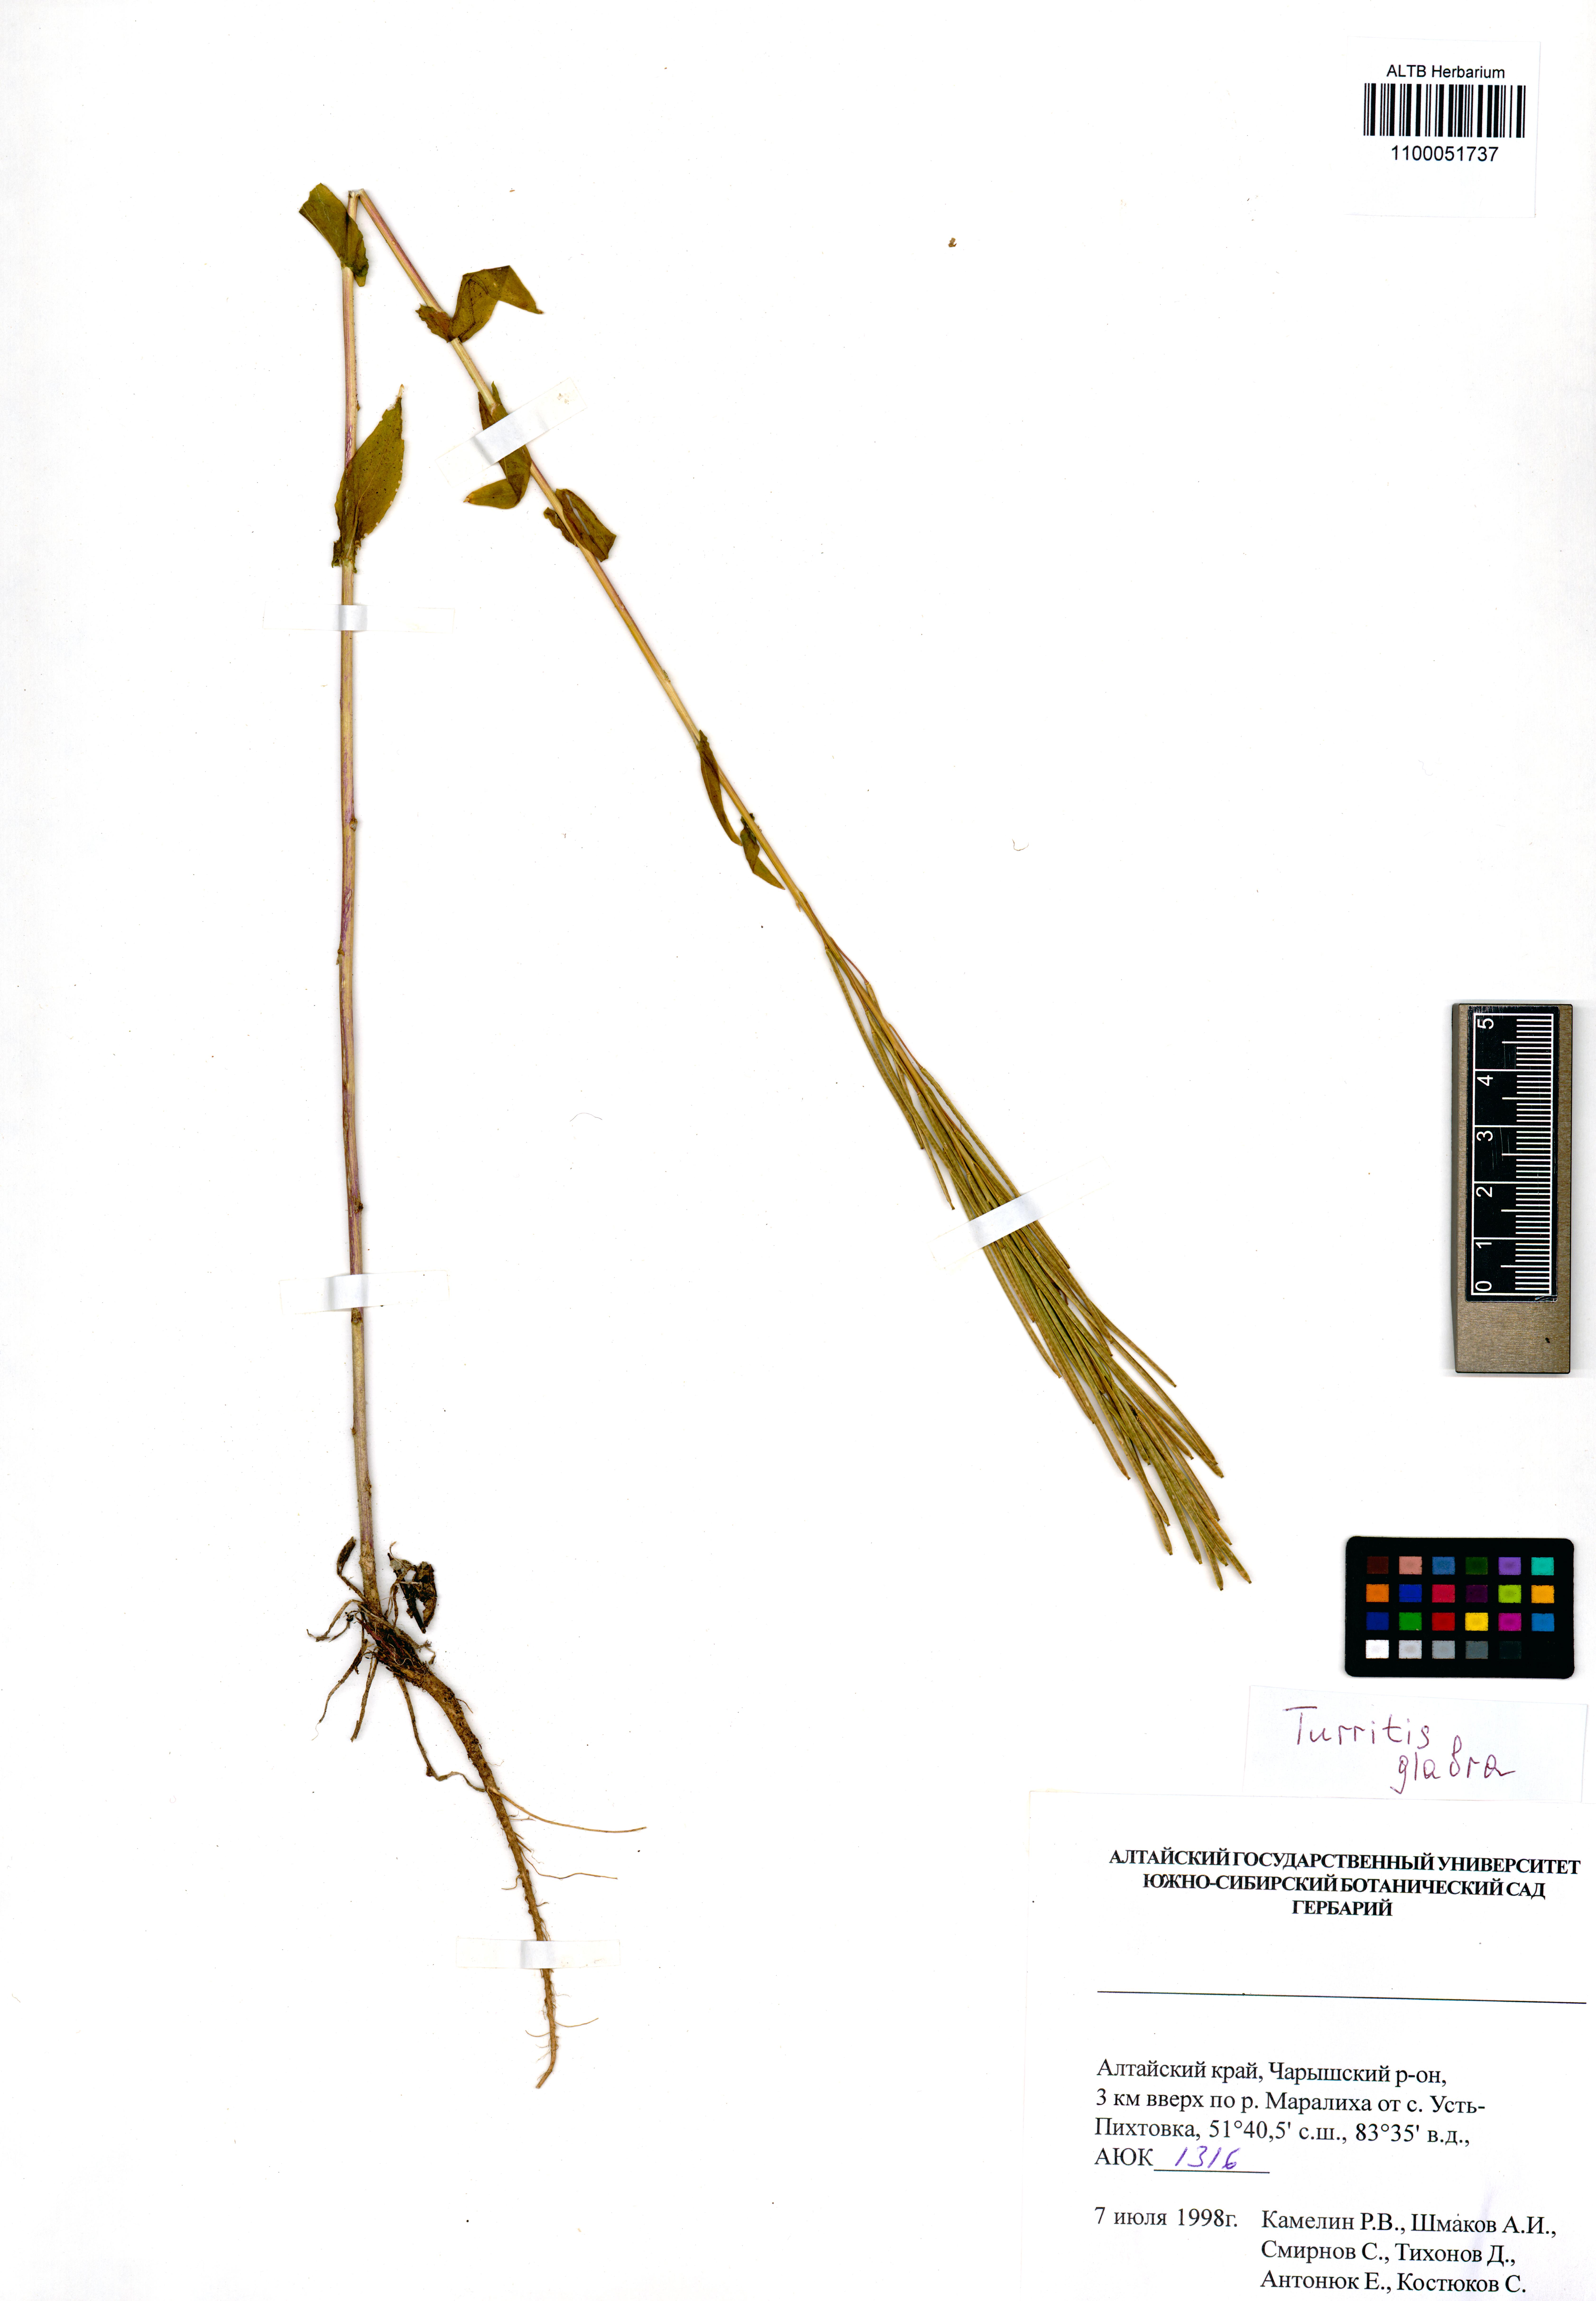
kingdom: Plantae
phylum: Tracheophyta
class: Magnoliopsida
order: Brassicales
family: Brassicaceae
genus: Turritis
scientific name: Turritis glabra
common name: Tower rockcress
